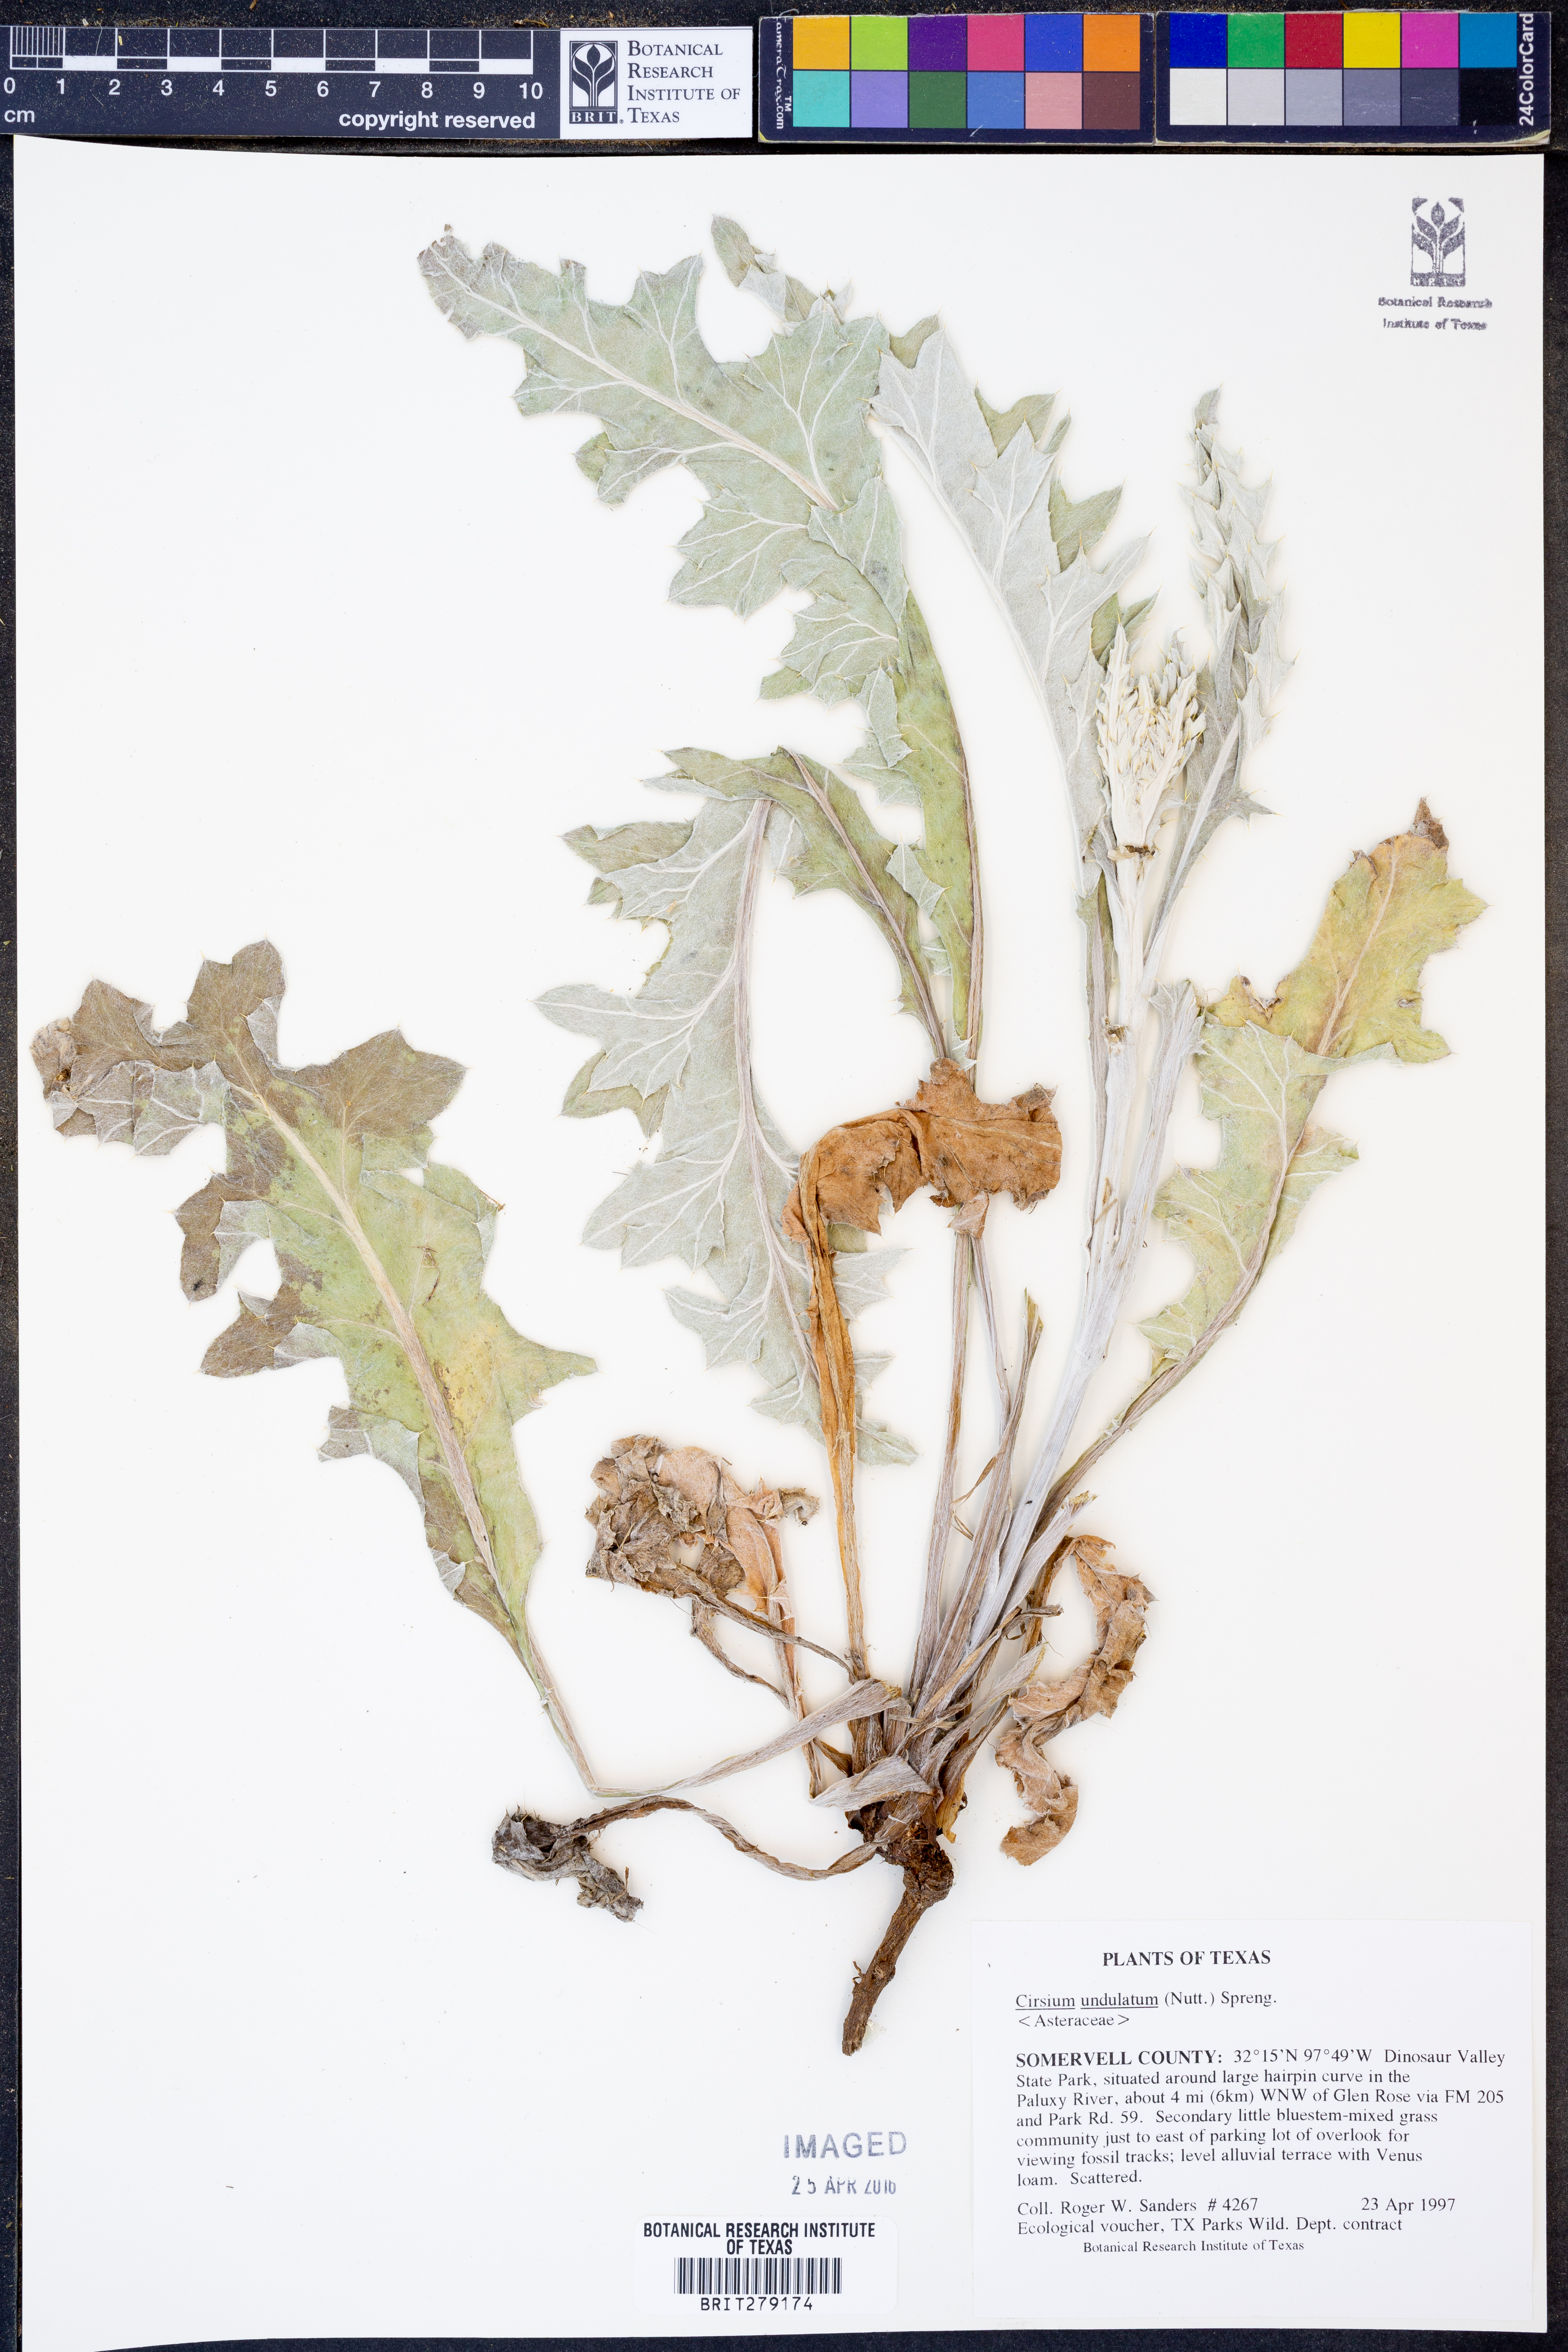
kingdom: Plantae
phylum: Tracheophyta
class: Magnoliopsida
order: Asterales
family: Asteraceae
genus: Cirsium
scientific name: Cirsium undulatum
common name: Pasture thistle
